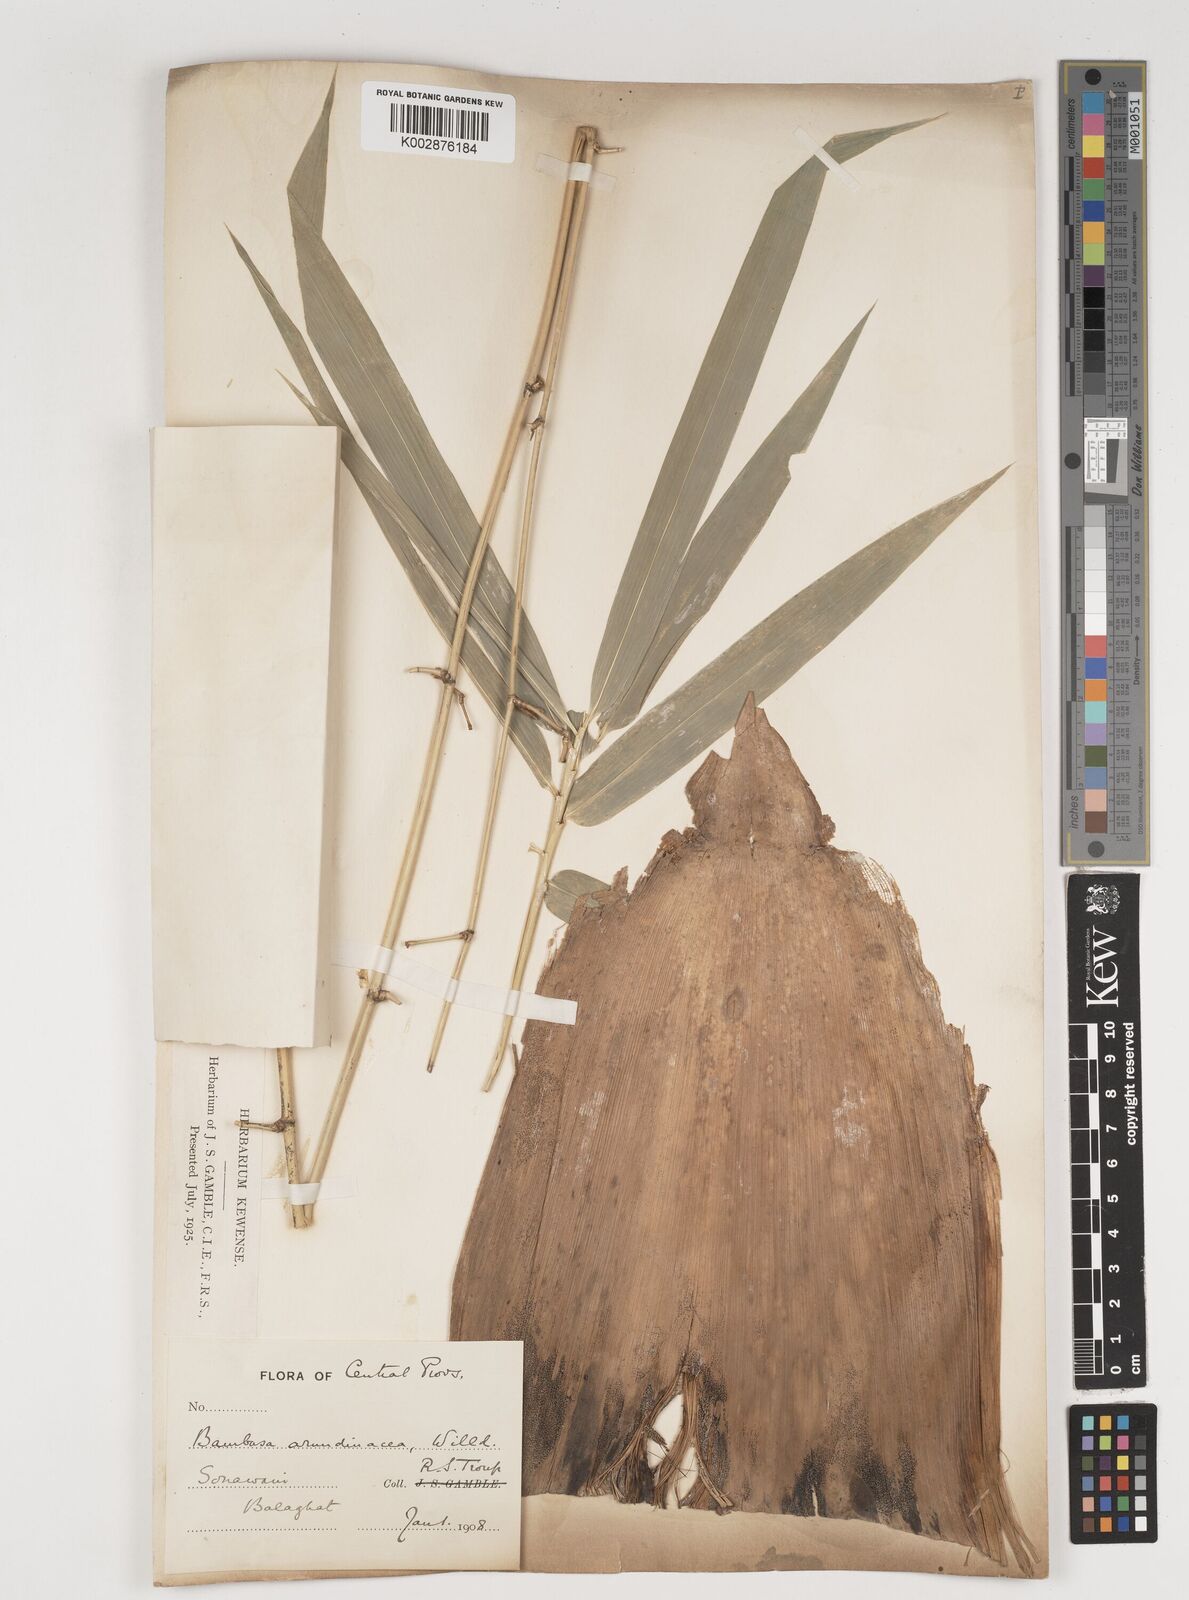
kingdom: Plantae
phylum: Tracheophyta
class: Liliopsida
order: Poales
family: Poaceae
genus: Bambusa
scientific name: Bambusa bambos
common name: Indian thorny bamboo
